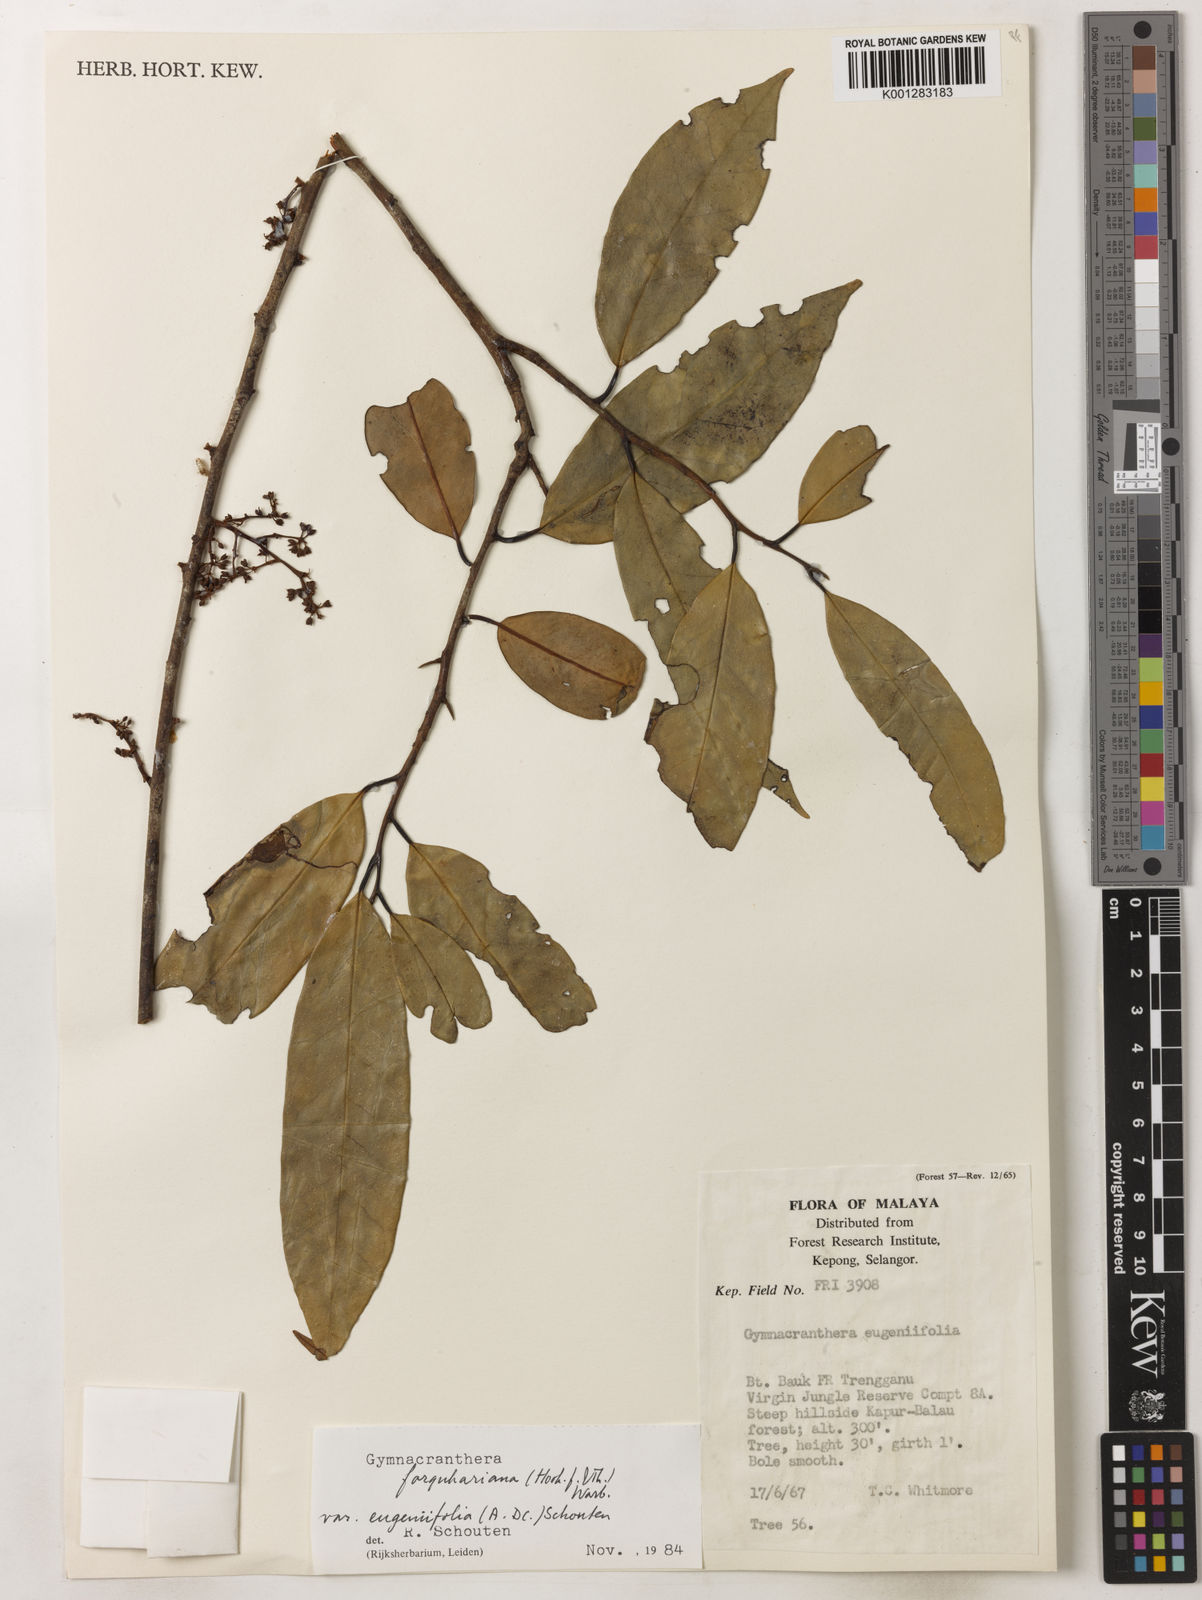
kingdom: Plantae
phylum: Tracheophyta
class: Magnoliopsida
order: Magnoliales
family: Myristicaceae
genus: Gymnacranthera
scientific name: Gymnacranthera farquhariana
